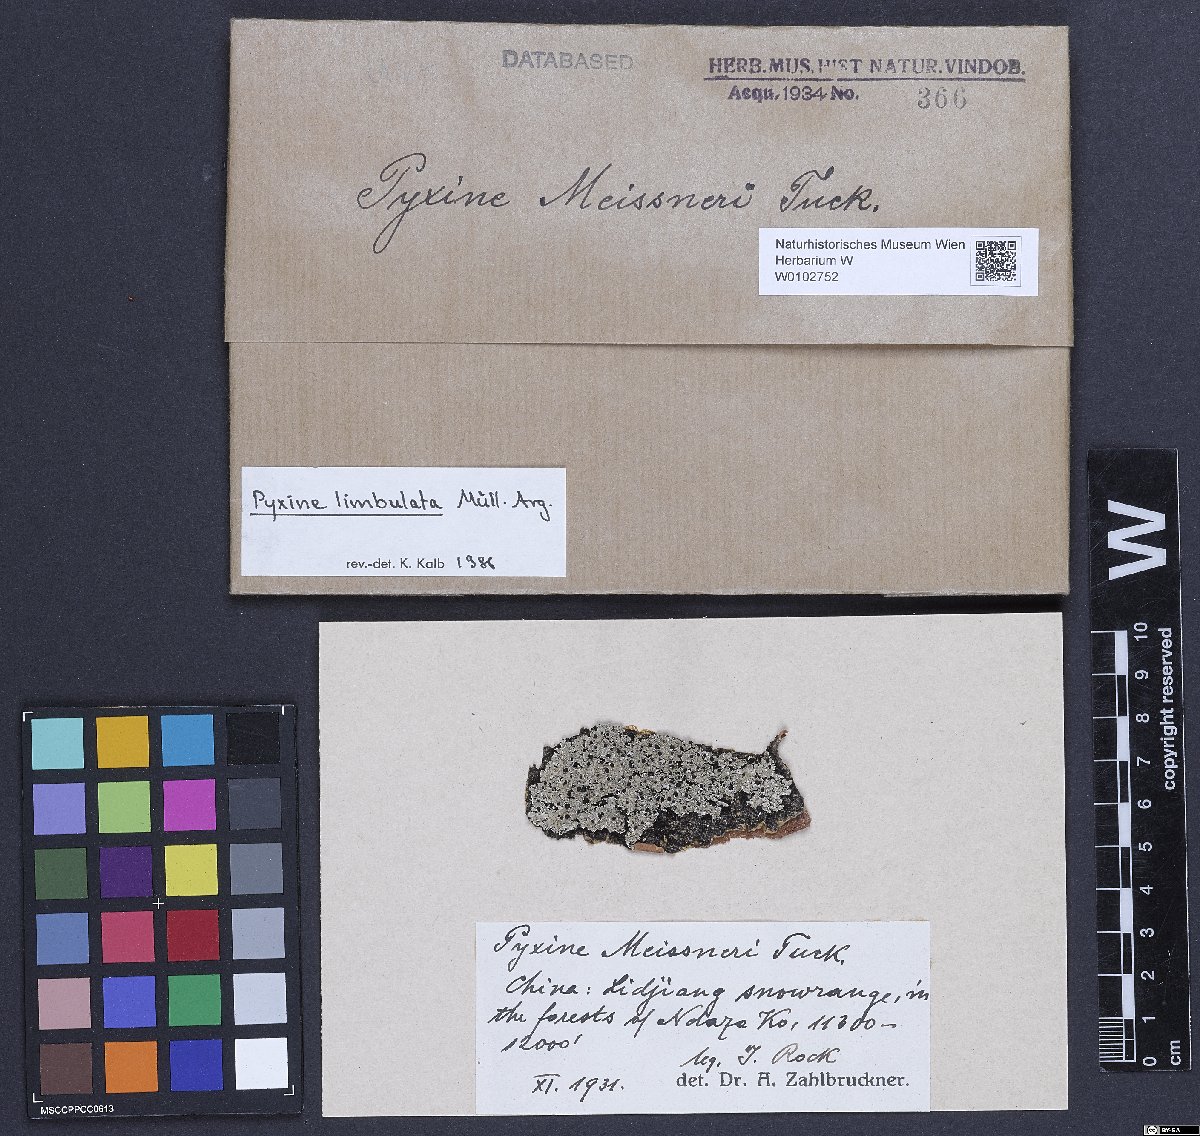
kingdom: Fungi
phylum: Ascomycota
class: Lecanoromycetes
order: Caliciales
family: Caliciaceae
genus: Pyxine
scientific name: Pyxine limbulata
